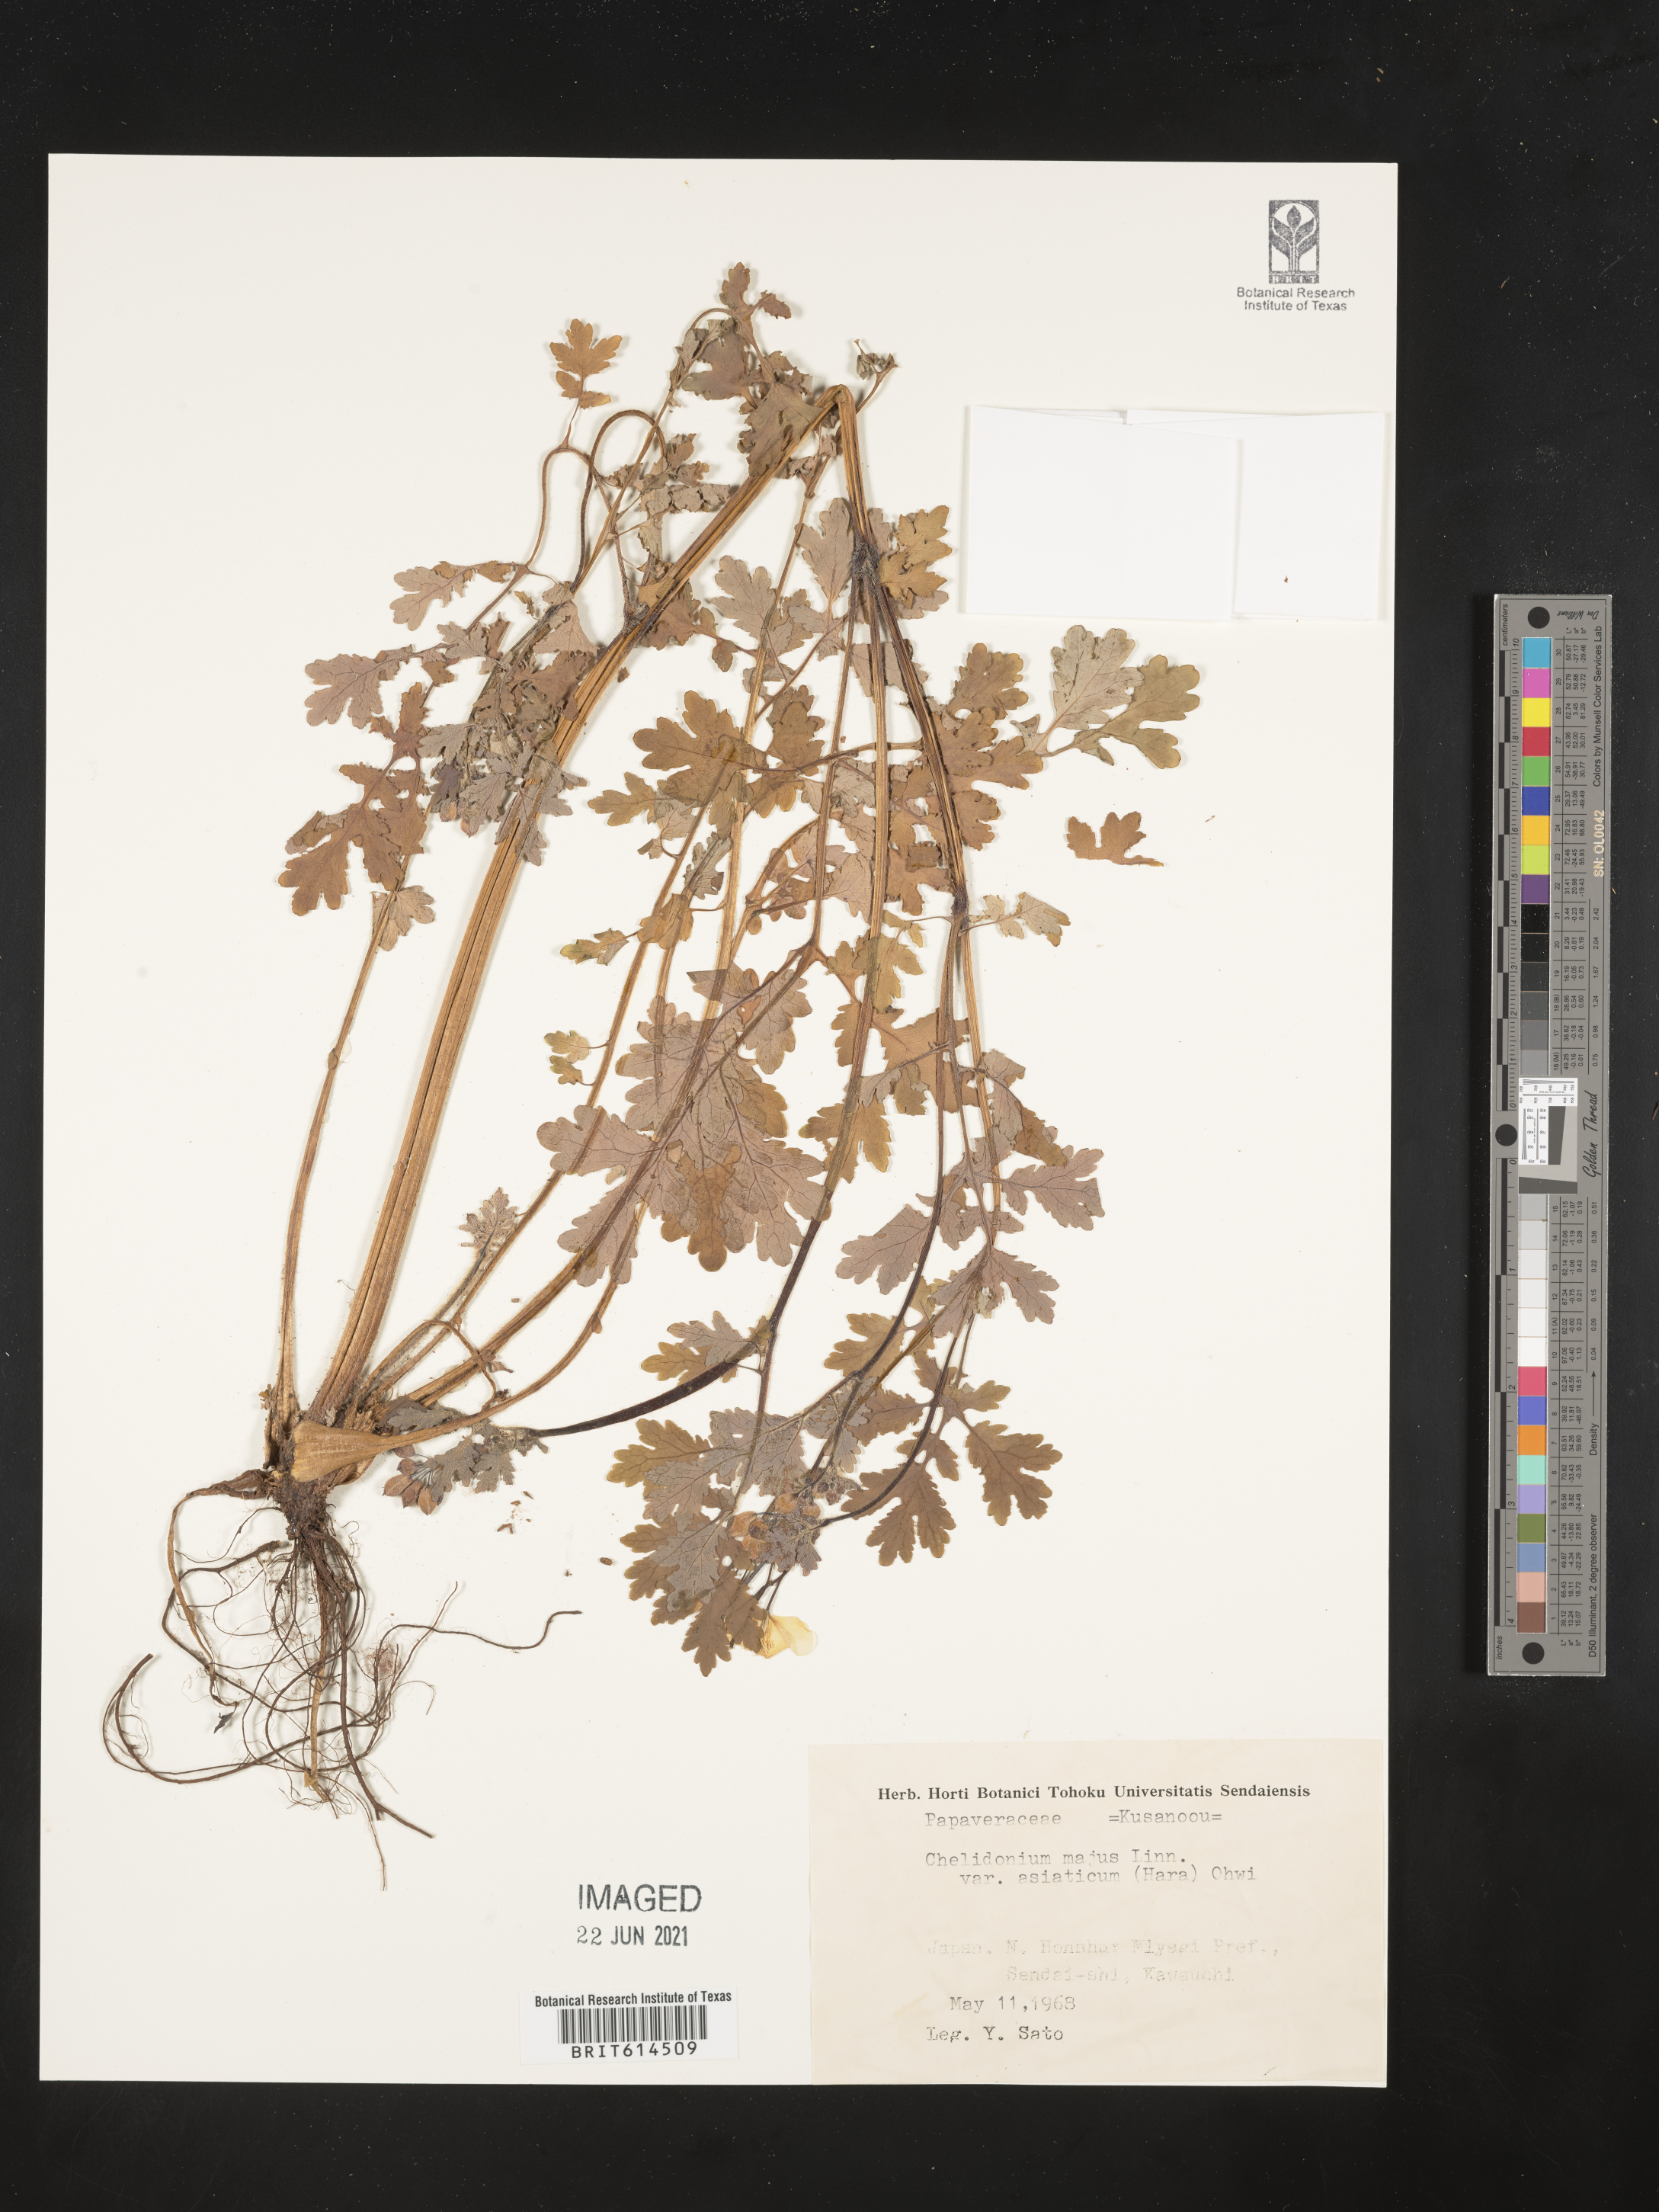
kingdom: Plantae
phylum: Tracheophyta
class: Magnoliopsida
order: Ranunculales
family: Papaveraceae
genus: Chelidonium
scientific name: Chelidonium majus
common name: Greater celandine
